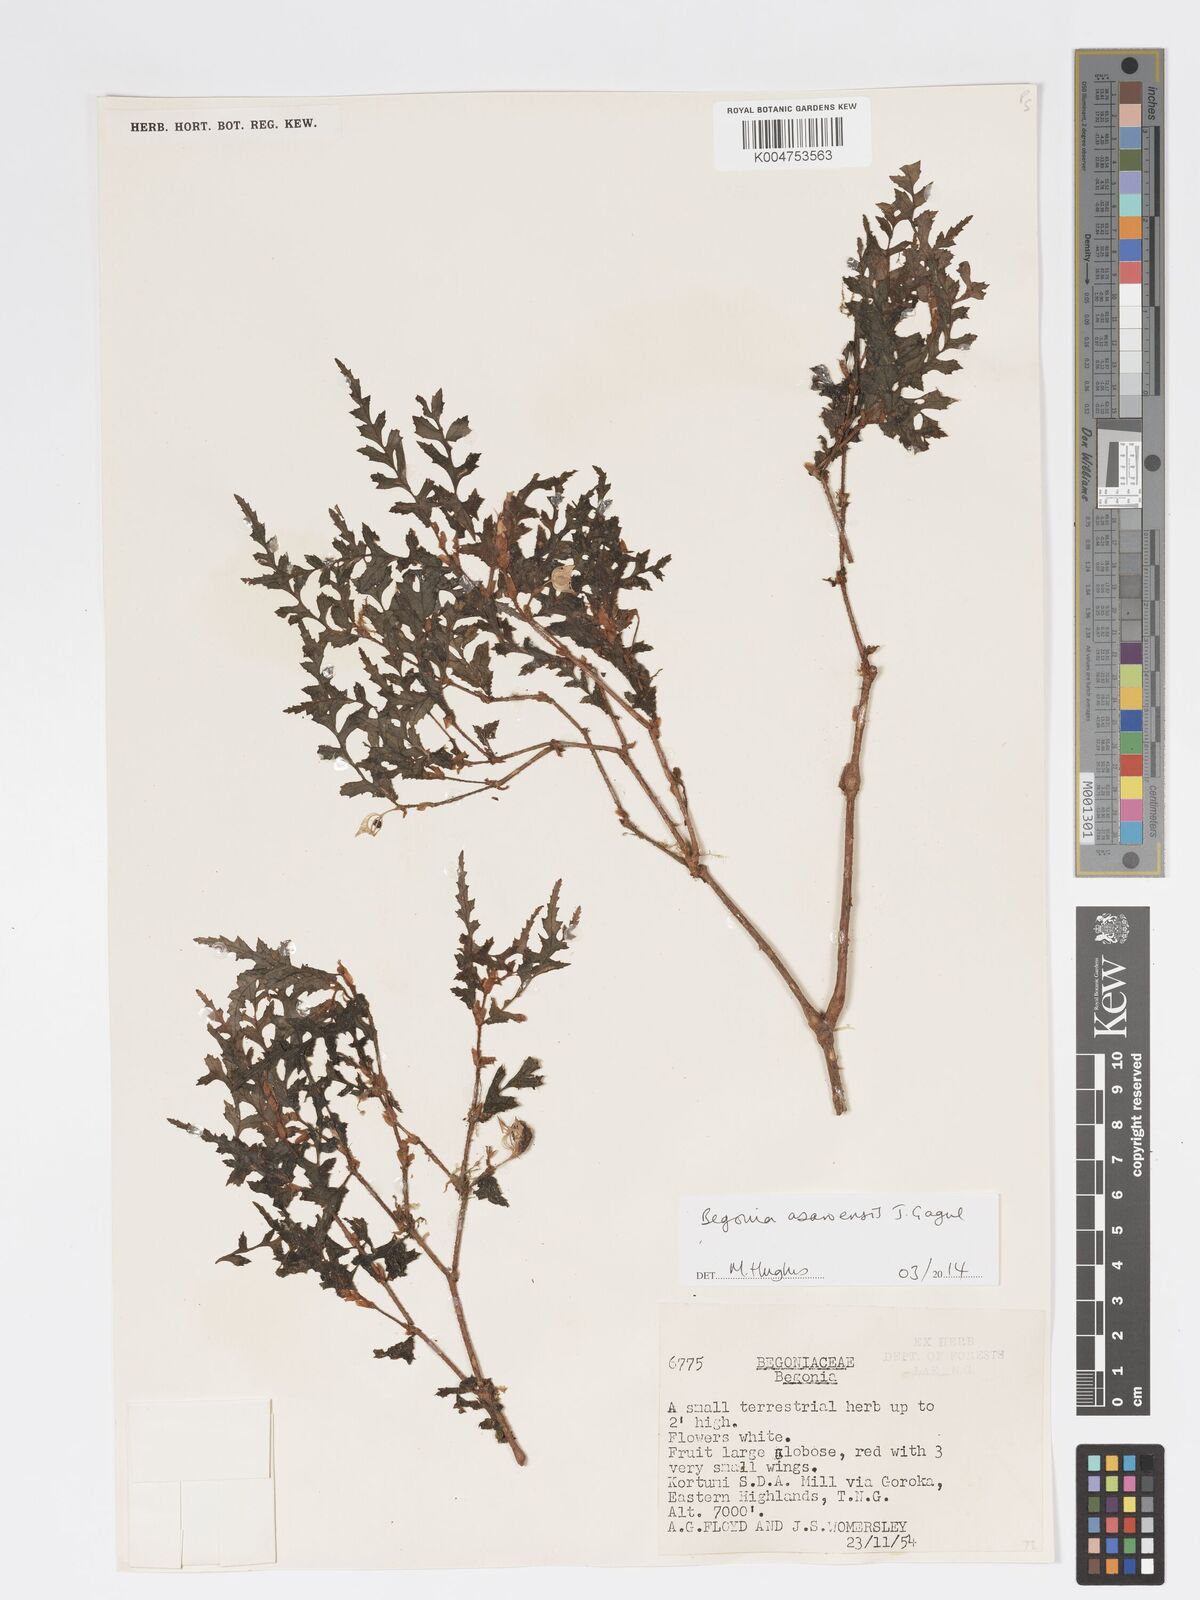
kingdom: Plantae
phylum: Tracheophyta
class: Magnoliopsida
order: Cucurbitales
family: Begoniaceae
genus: Begonia
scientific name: Begonia asaroensis
